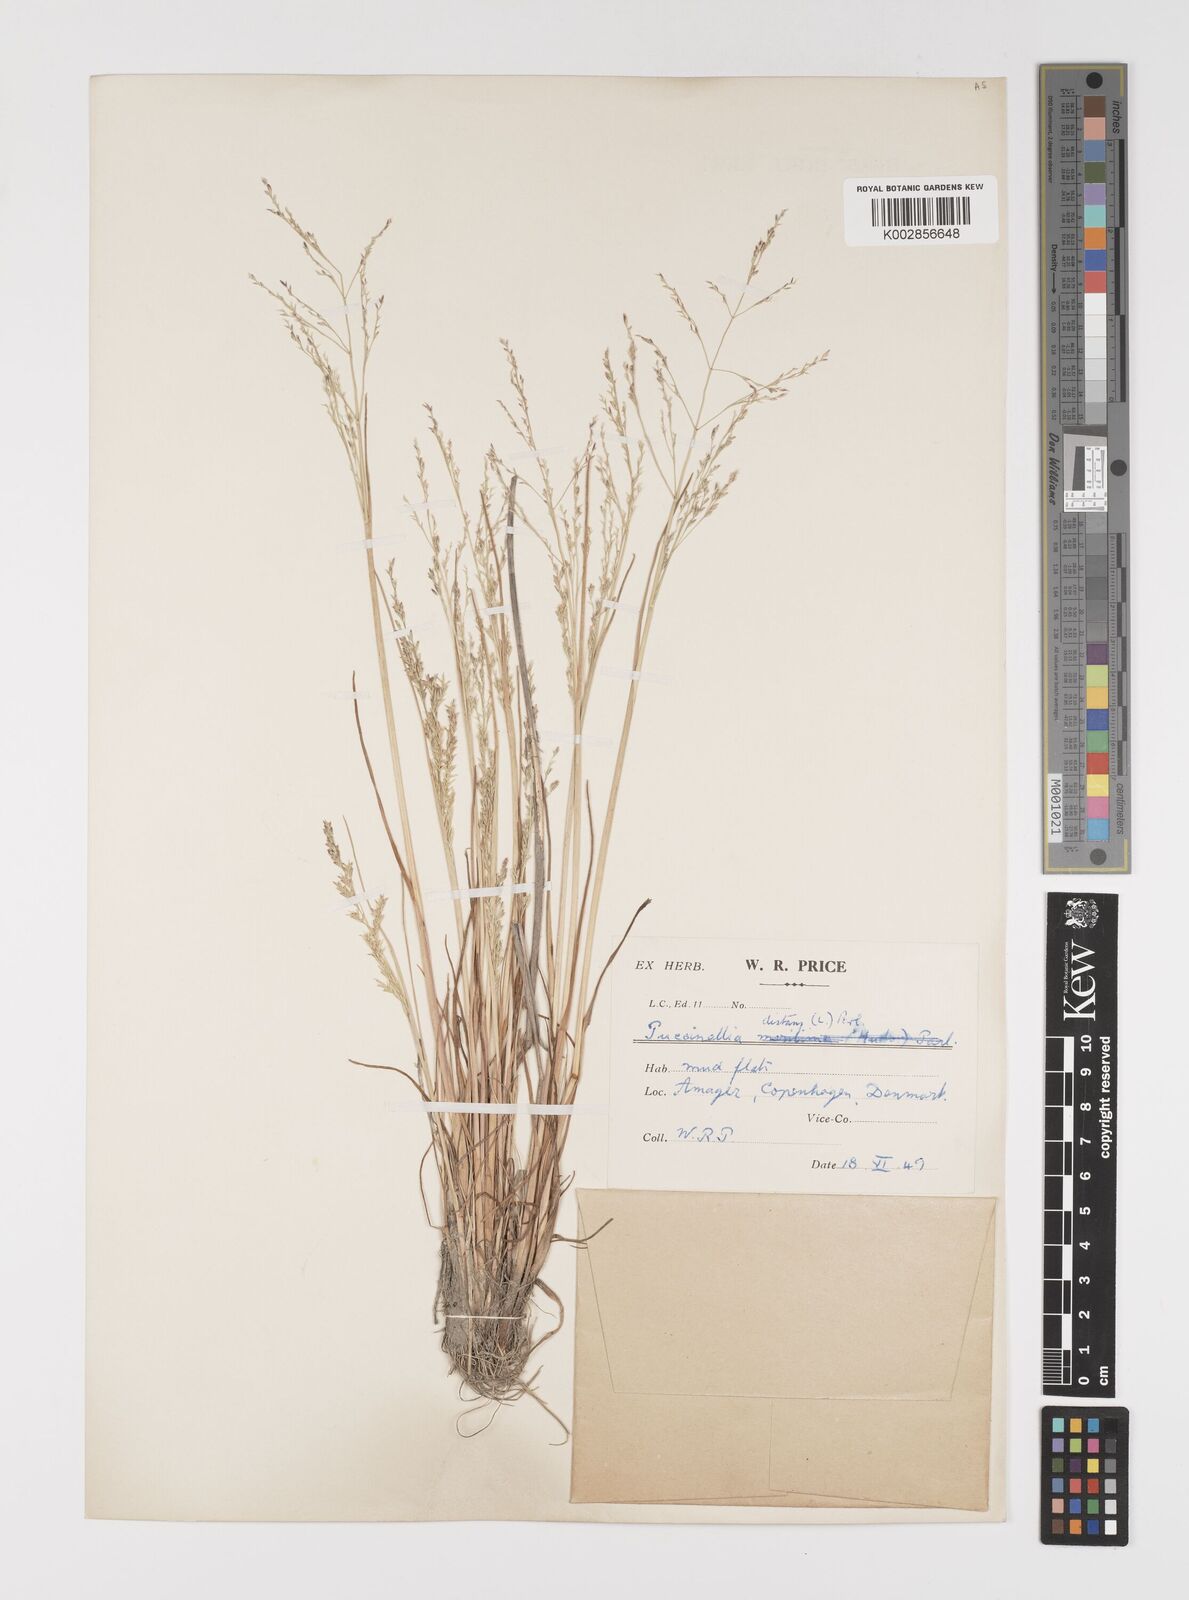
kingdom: Plantae
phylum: Tracheophyta
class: Liliopsida
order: Poales
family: Poaceae
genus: Puccinellia
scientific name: Puccinellia
